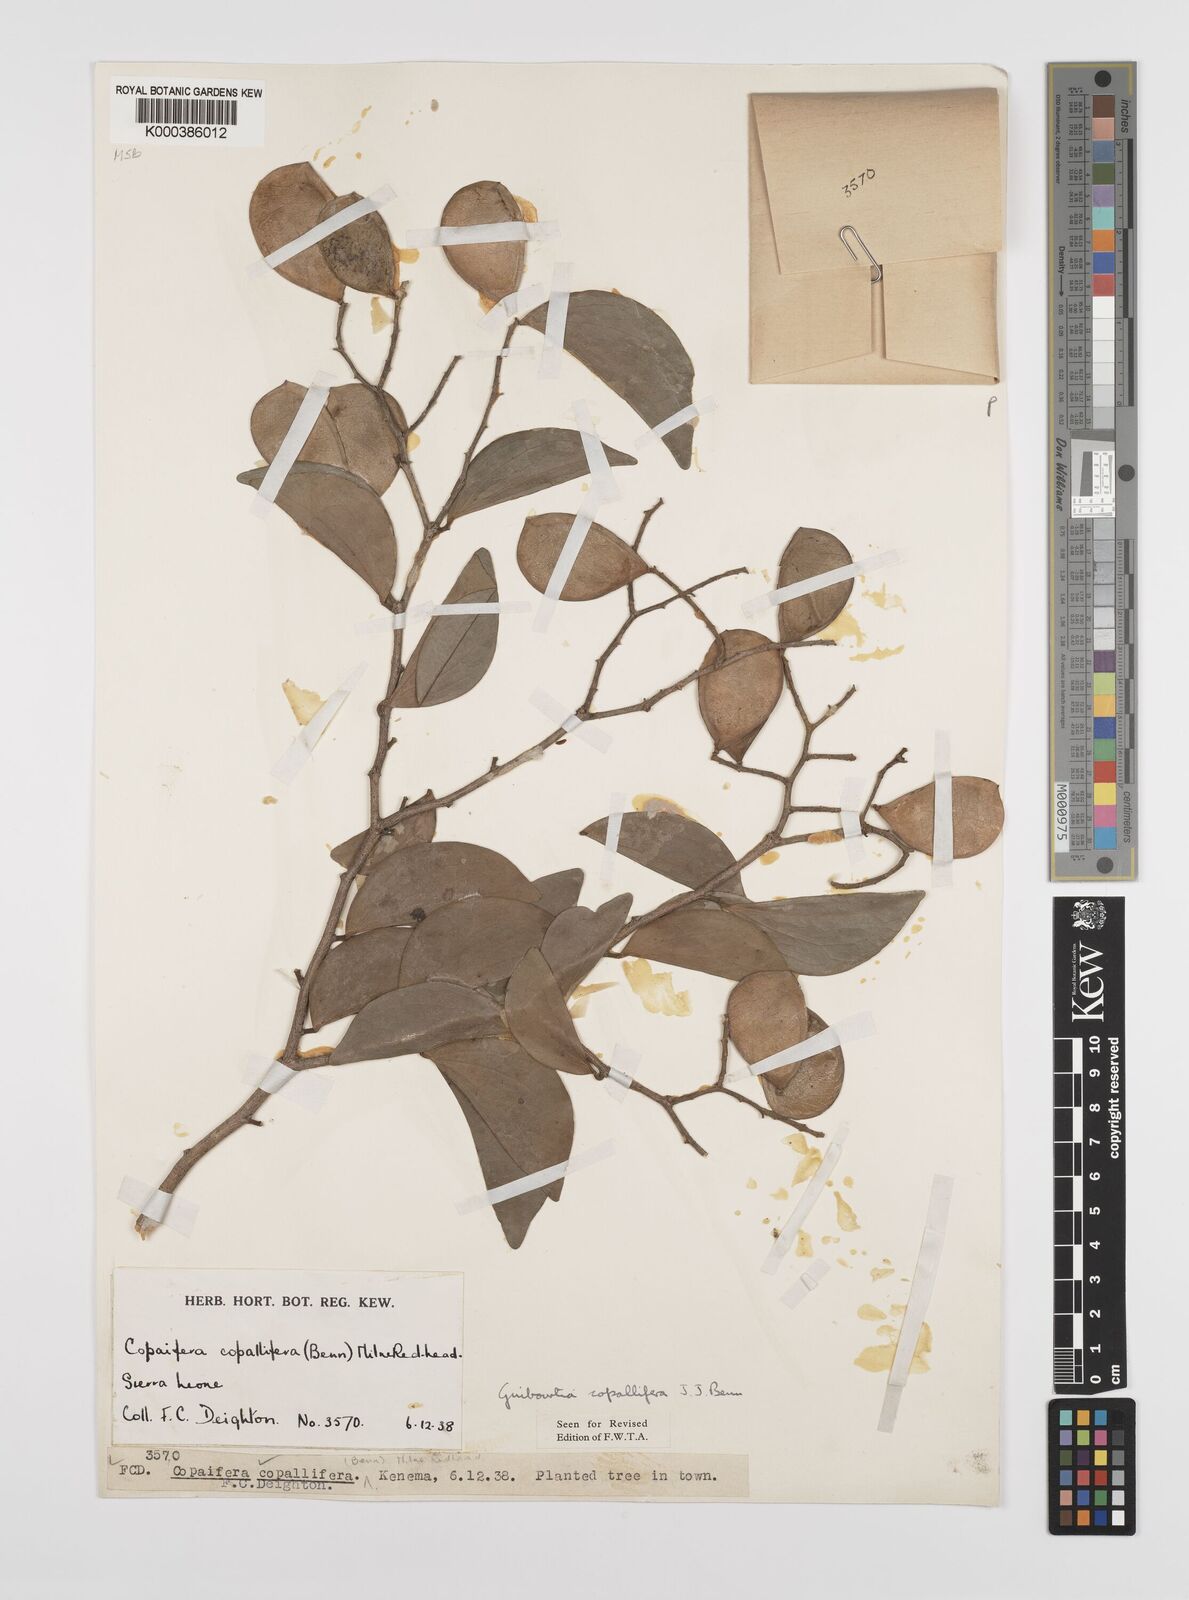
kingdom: Plantae
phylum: Tracheophyta
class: Magnoliopsida
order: Fabales
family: Fabaceae
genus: Guibourtia
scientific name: Guibourtia copallifera
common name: Kobo tree
